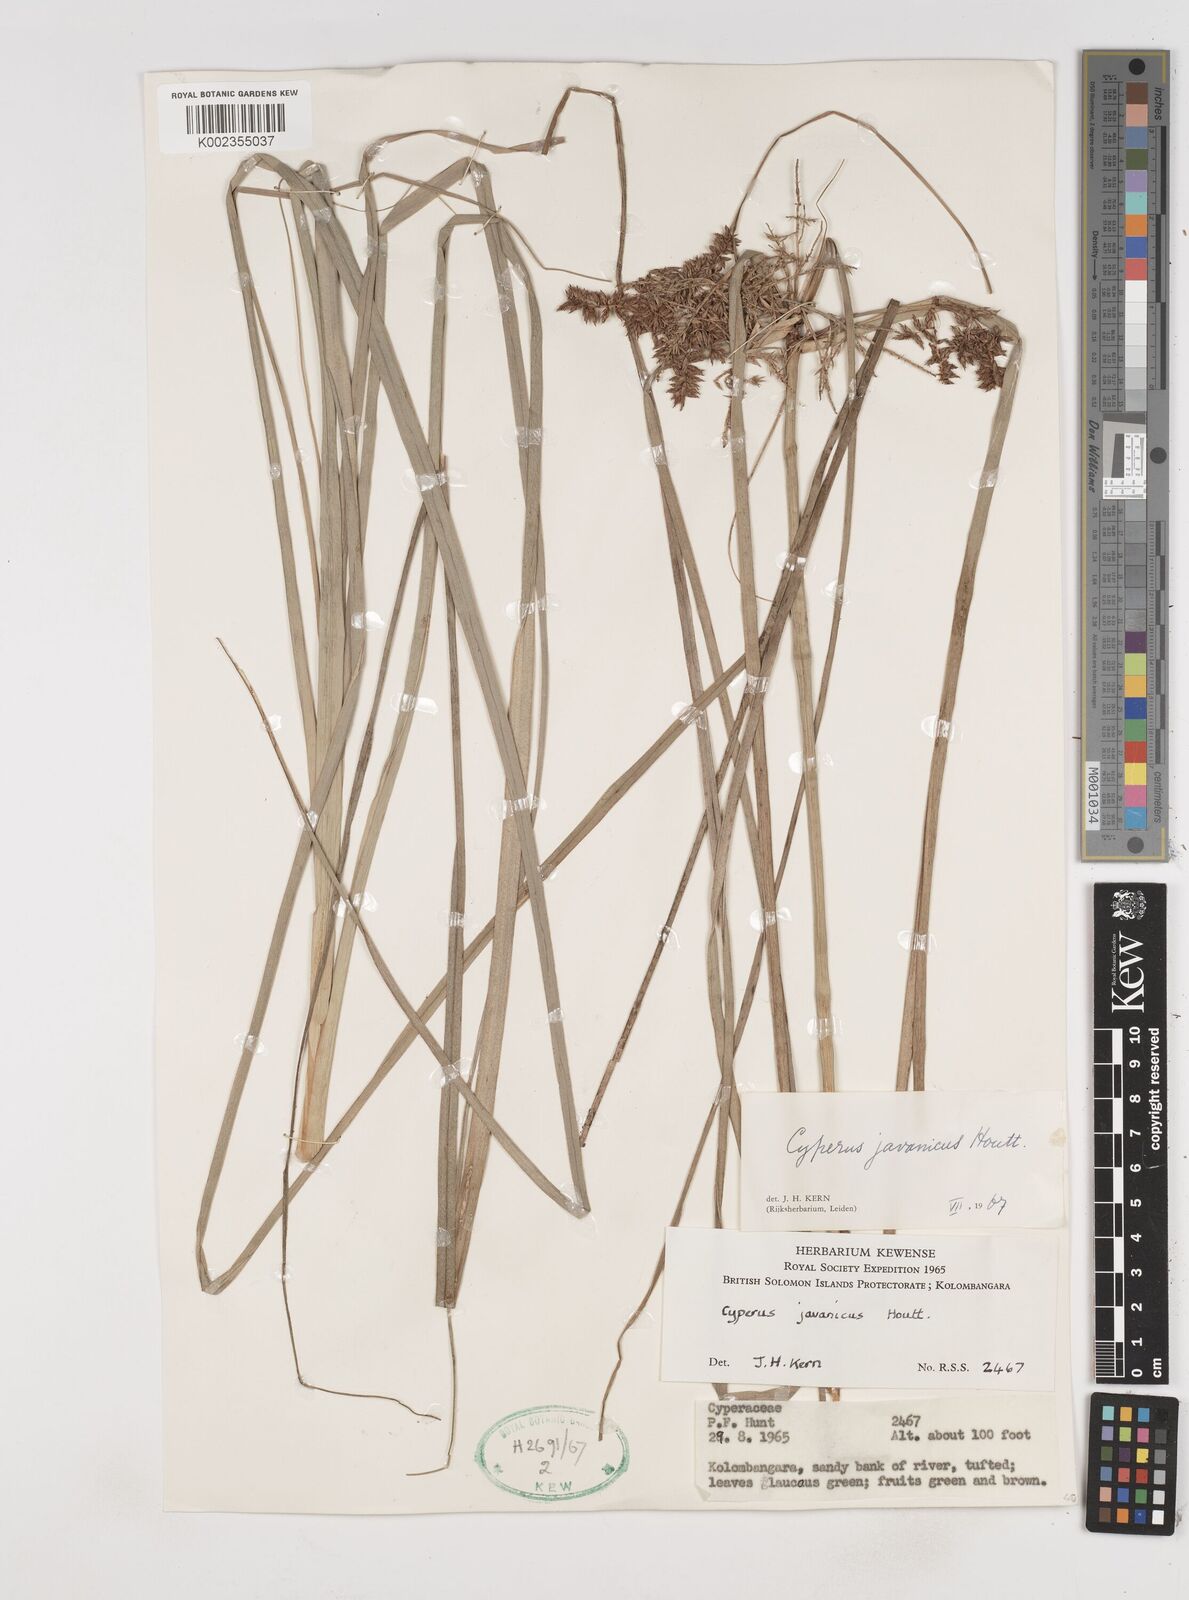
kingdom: Plantae
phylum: Tracheophyta
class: Liliopsida
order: Poales
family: Cyperaceae
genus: Cyperus
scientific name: Cyperus javanicus
